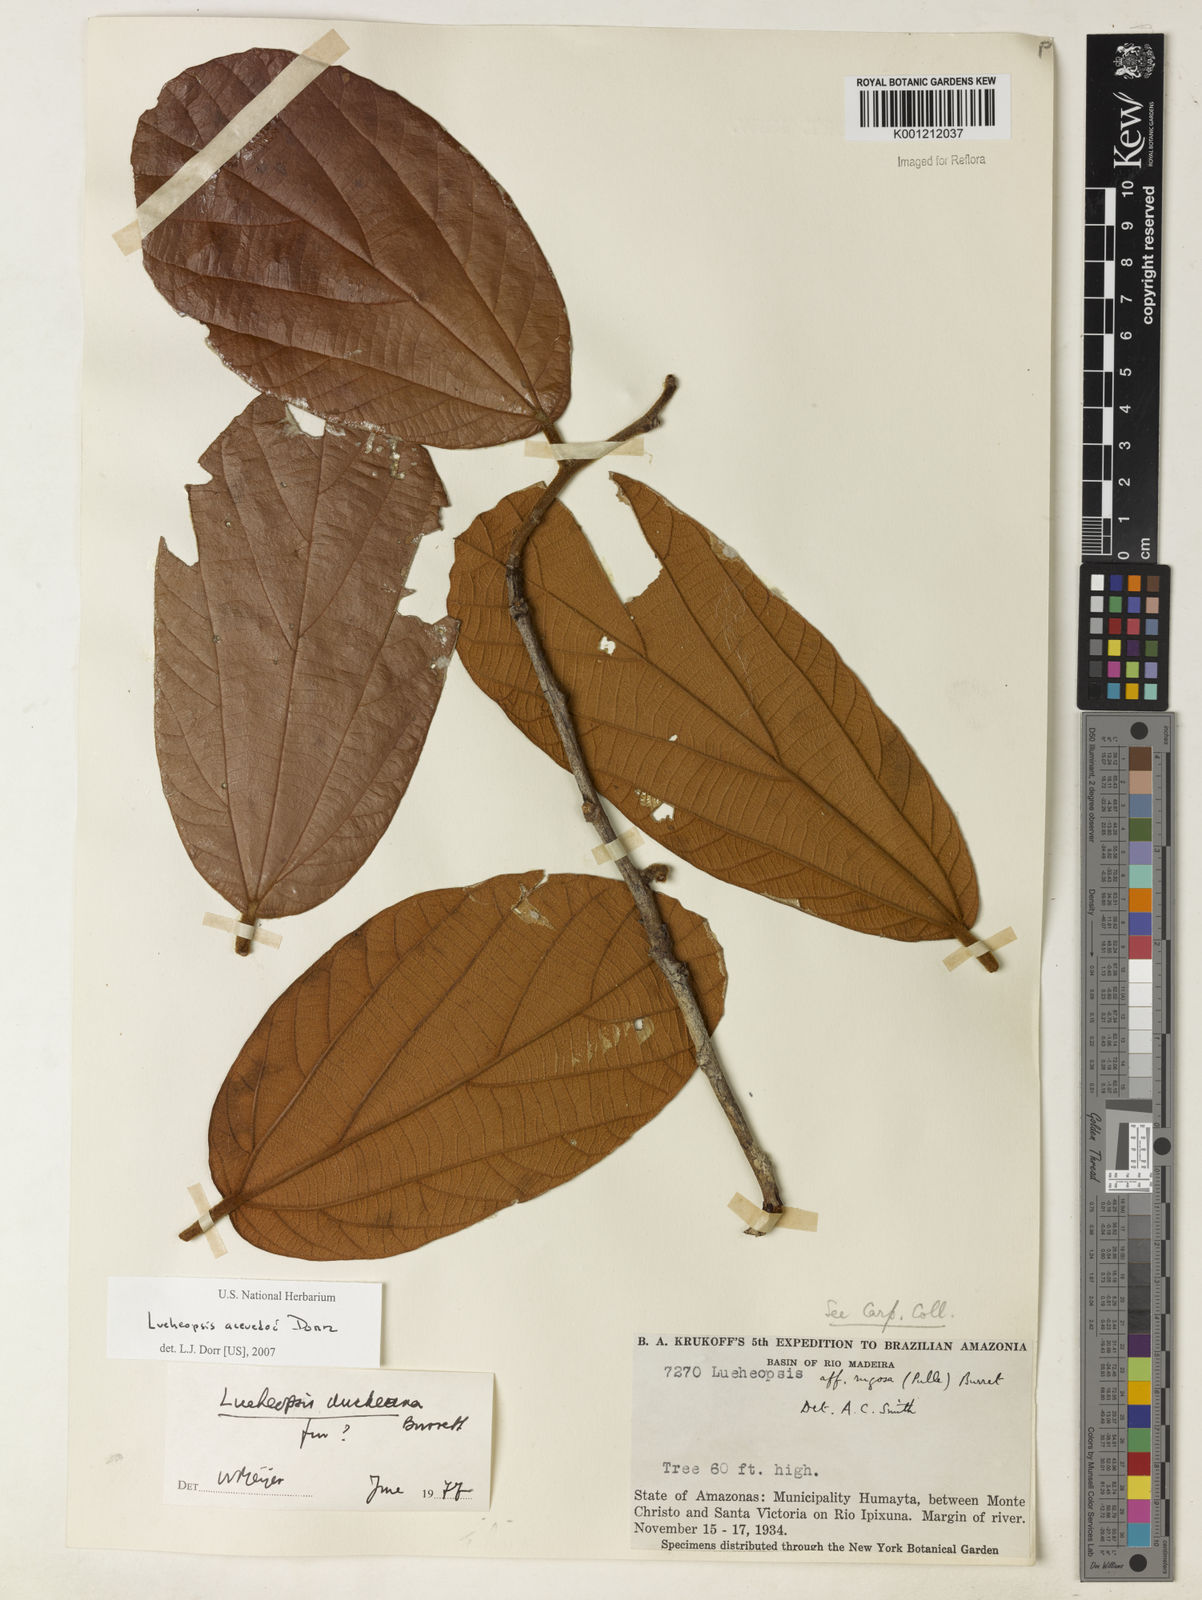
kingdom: Plantae
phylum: Tracheophyta
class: Magnoliopsida
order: Malvales
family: Malvaceae
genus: Lueheopsis
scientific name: Lueheopsis
